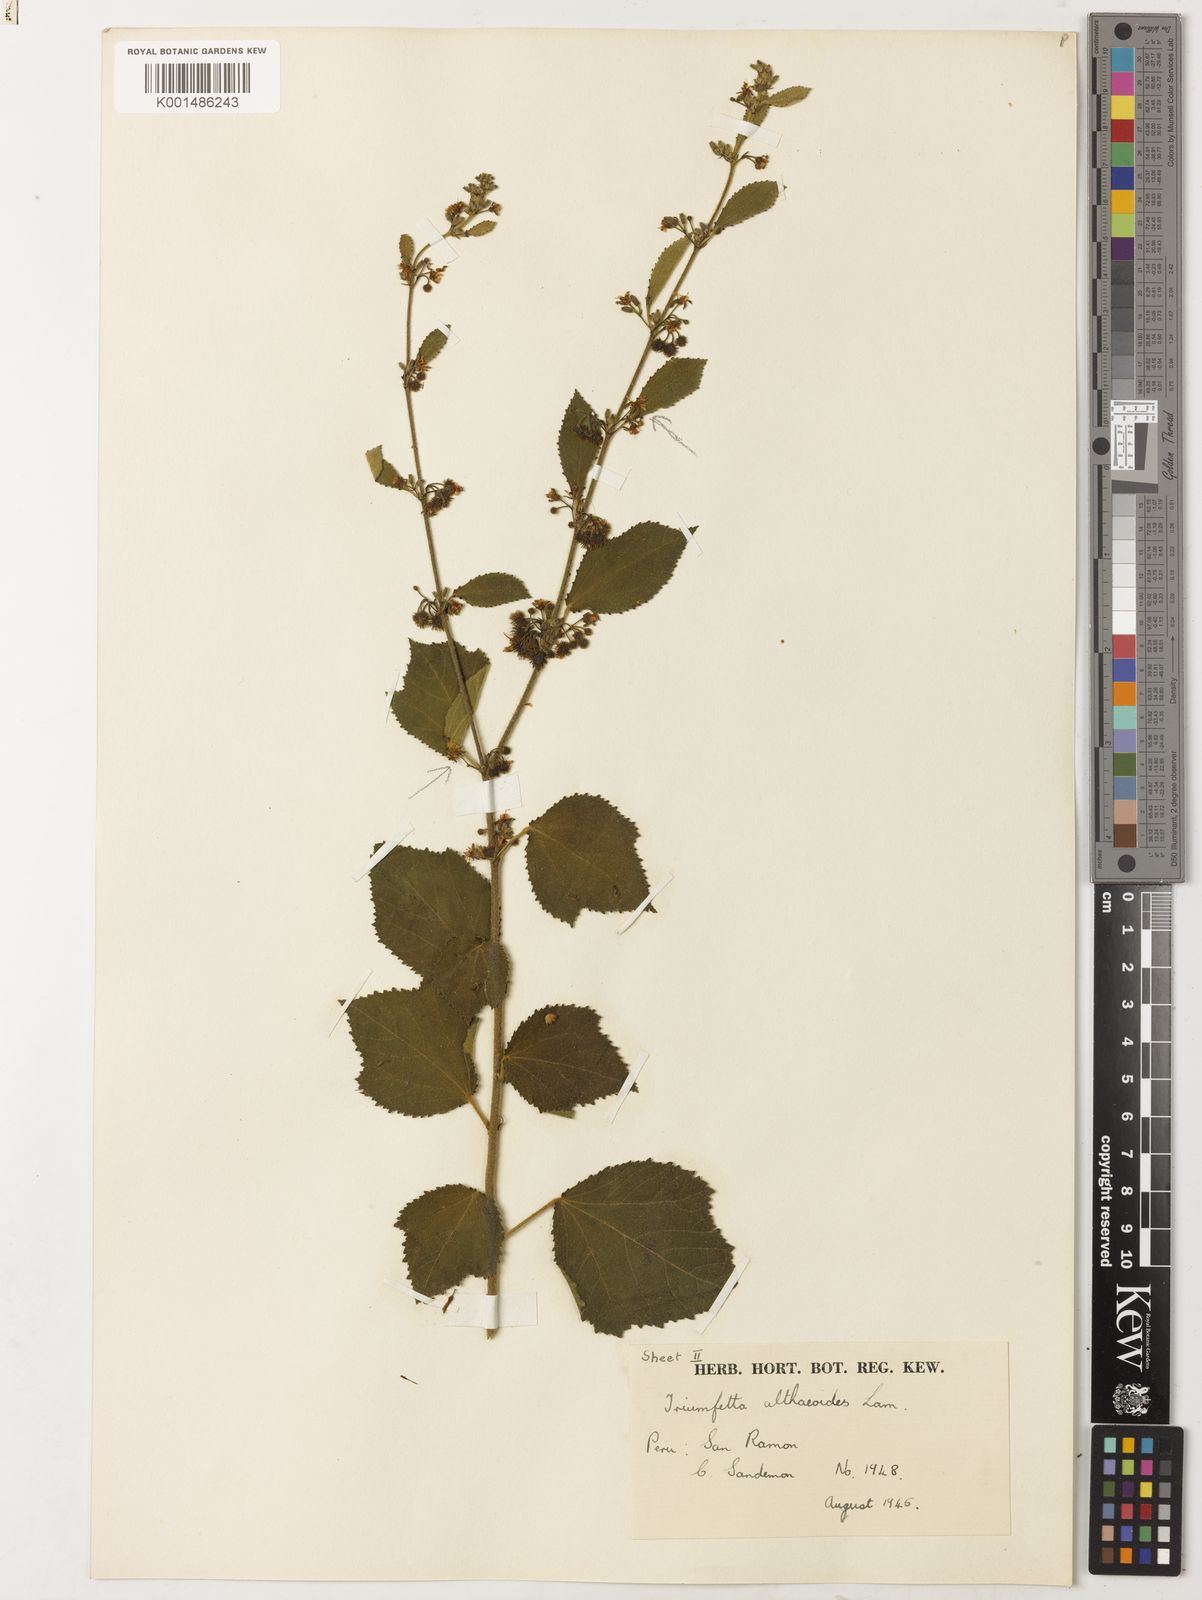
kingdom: Plantae
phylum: Tracheophyta
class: Magnoliopsida
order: Malvales
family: Malvaceae
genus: Triumfetta
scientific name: Triumfetta althaeoides
